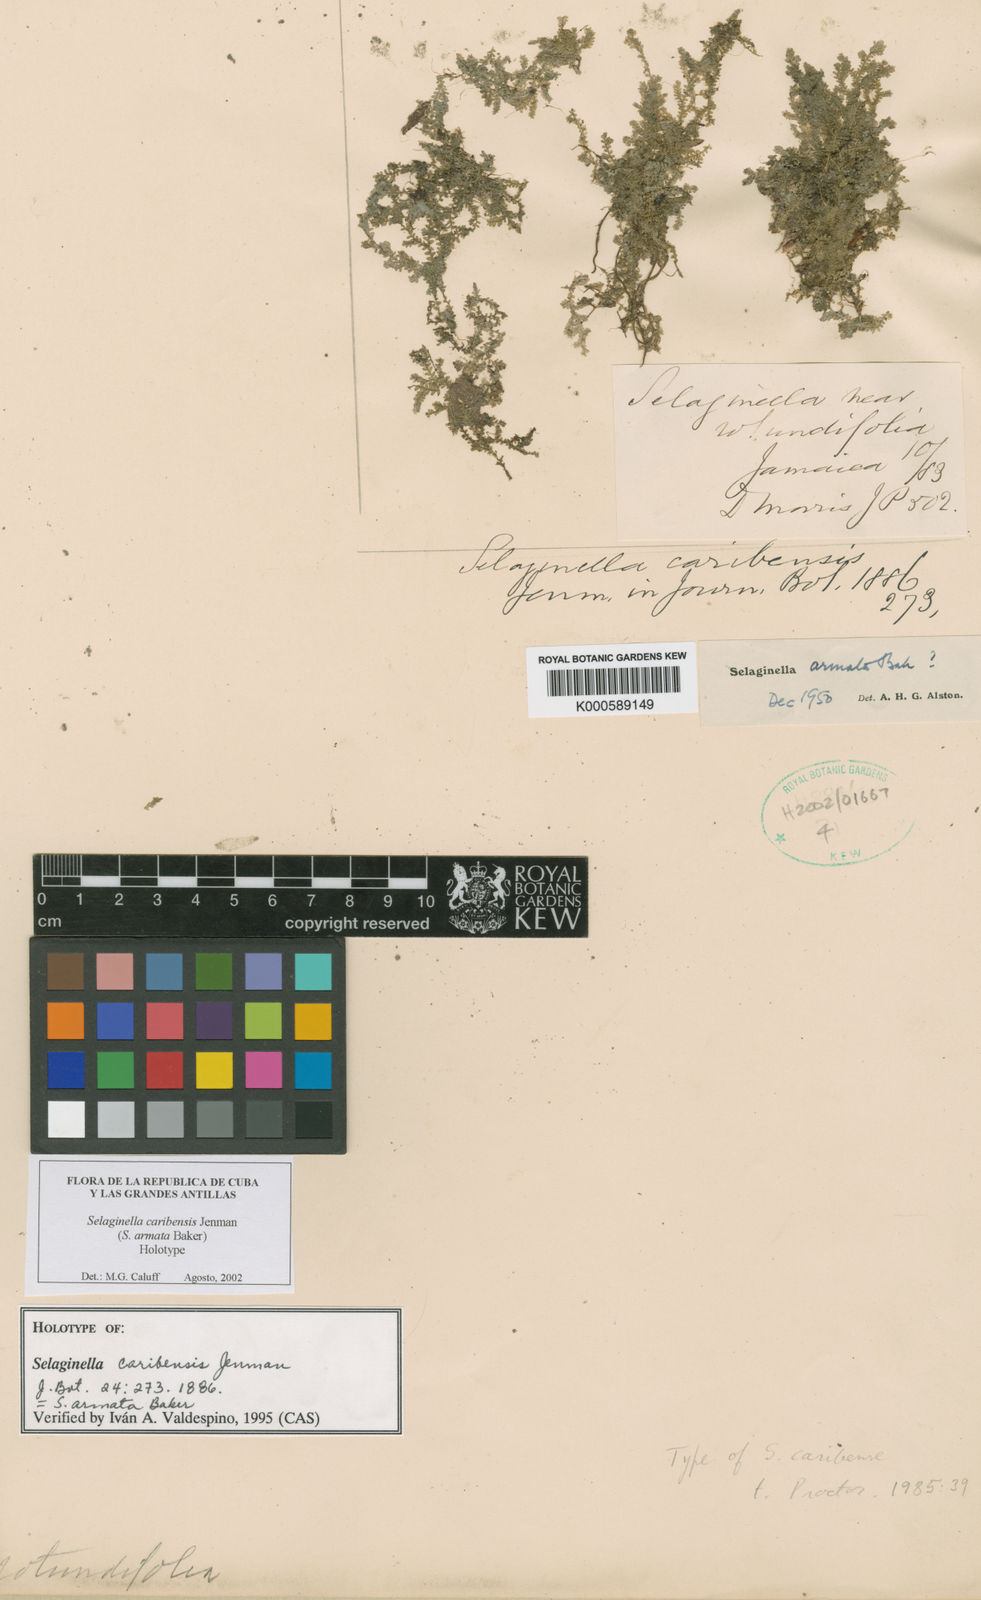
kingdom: Plantae
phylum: Tracheophyta
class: Lycopodiopsida
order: Selaginellales
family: Selaginellaceae
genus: Selaginella
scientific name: Selaginella armata
